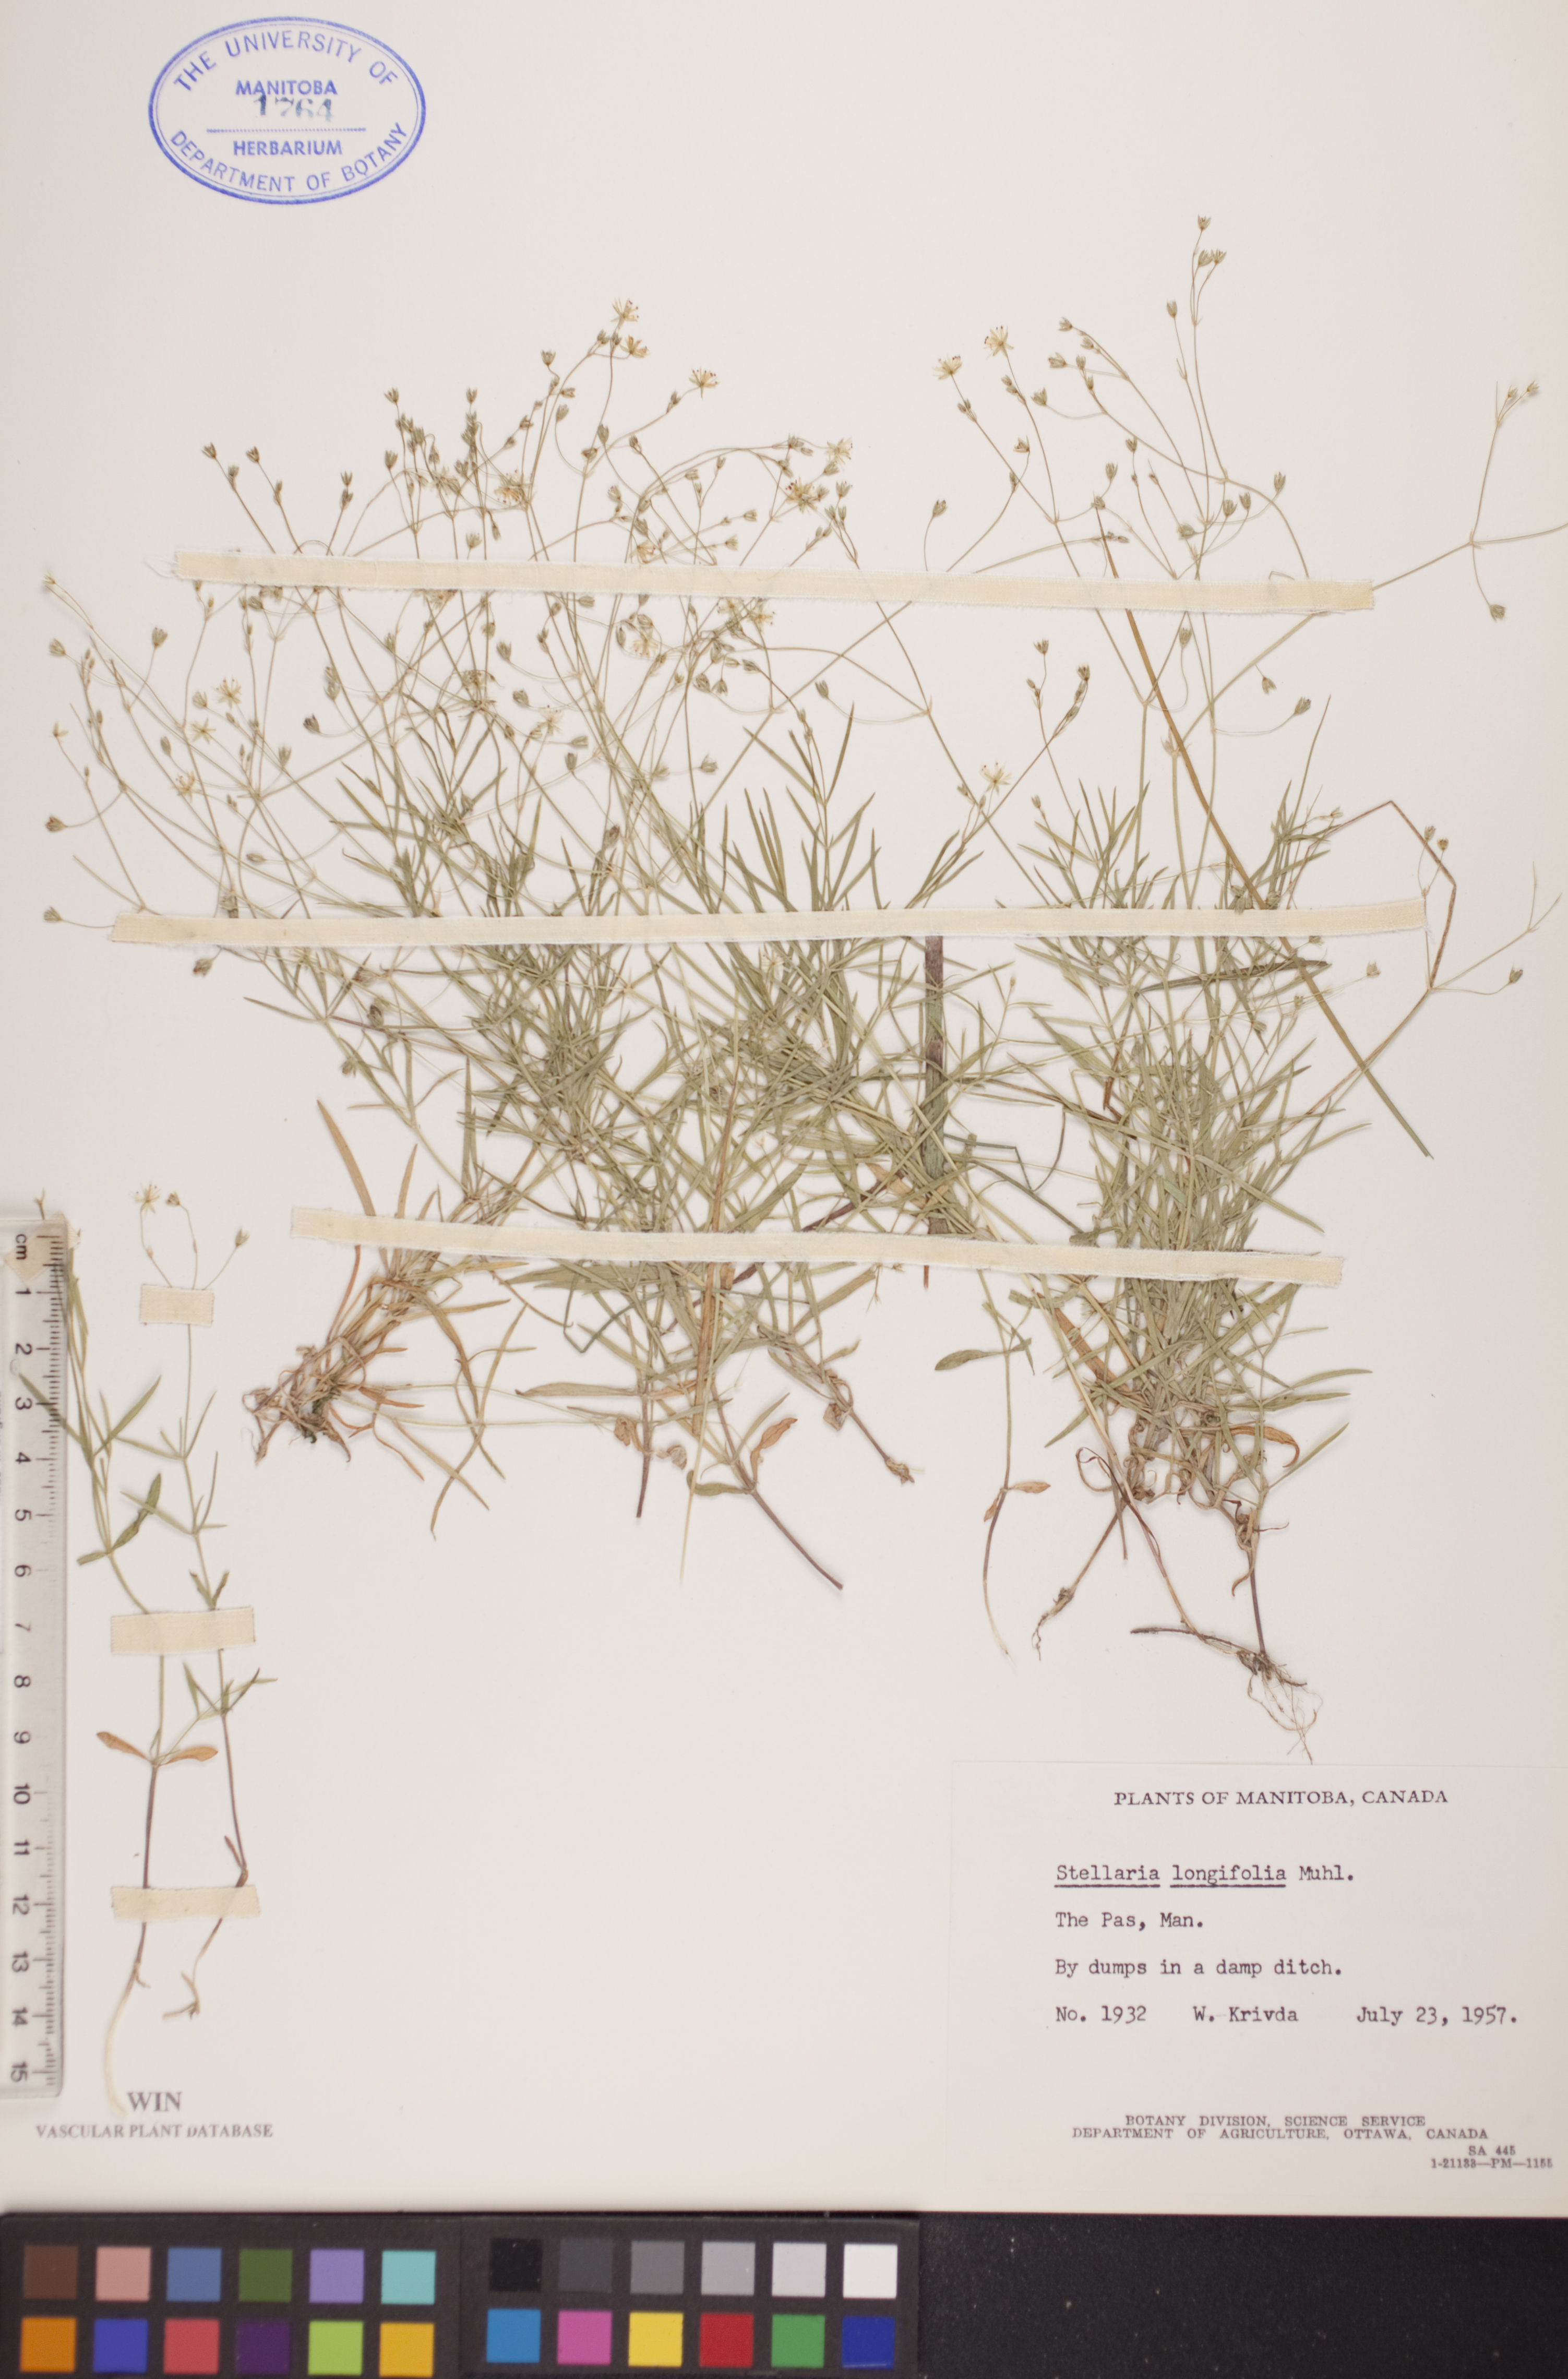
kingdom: Plantae
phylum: Tracheophyta
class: Magnoliopsida
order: Caryophyllales
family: Caryophyllaceae
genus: Stellaria
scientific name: Stellaria longifolia
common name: Long-leaved chickweed
